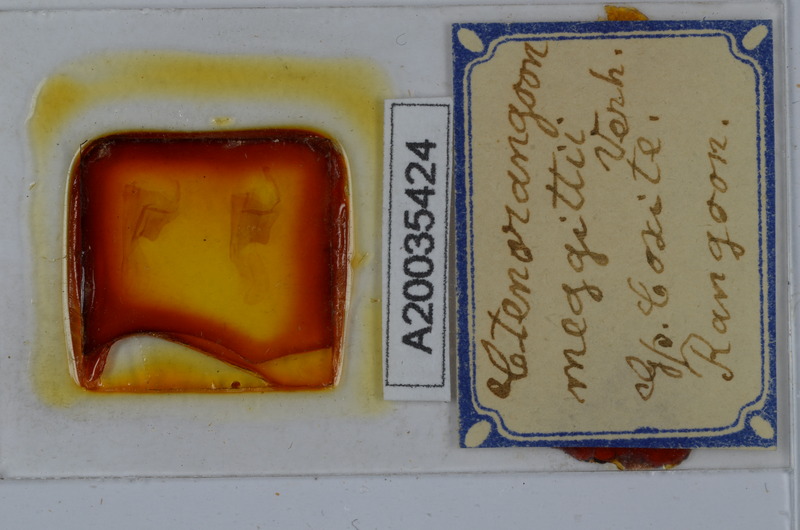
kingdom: Animalia
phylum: Arthropoda
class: Diplopoda
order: Spirostreptida
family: Harpagophoridae
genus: Ctenorangoon
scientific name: Ctenorangoon feae
